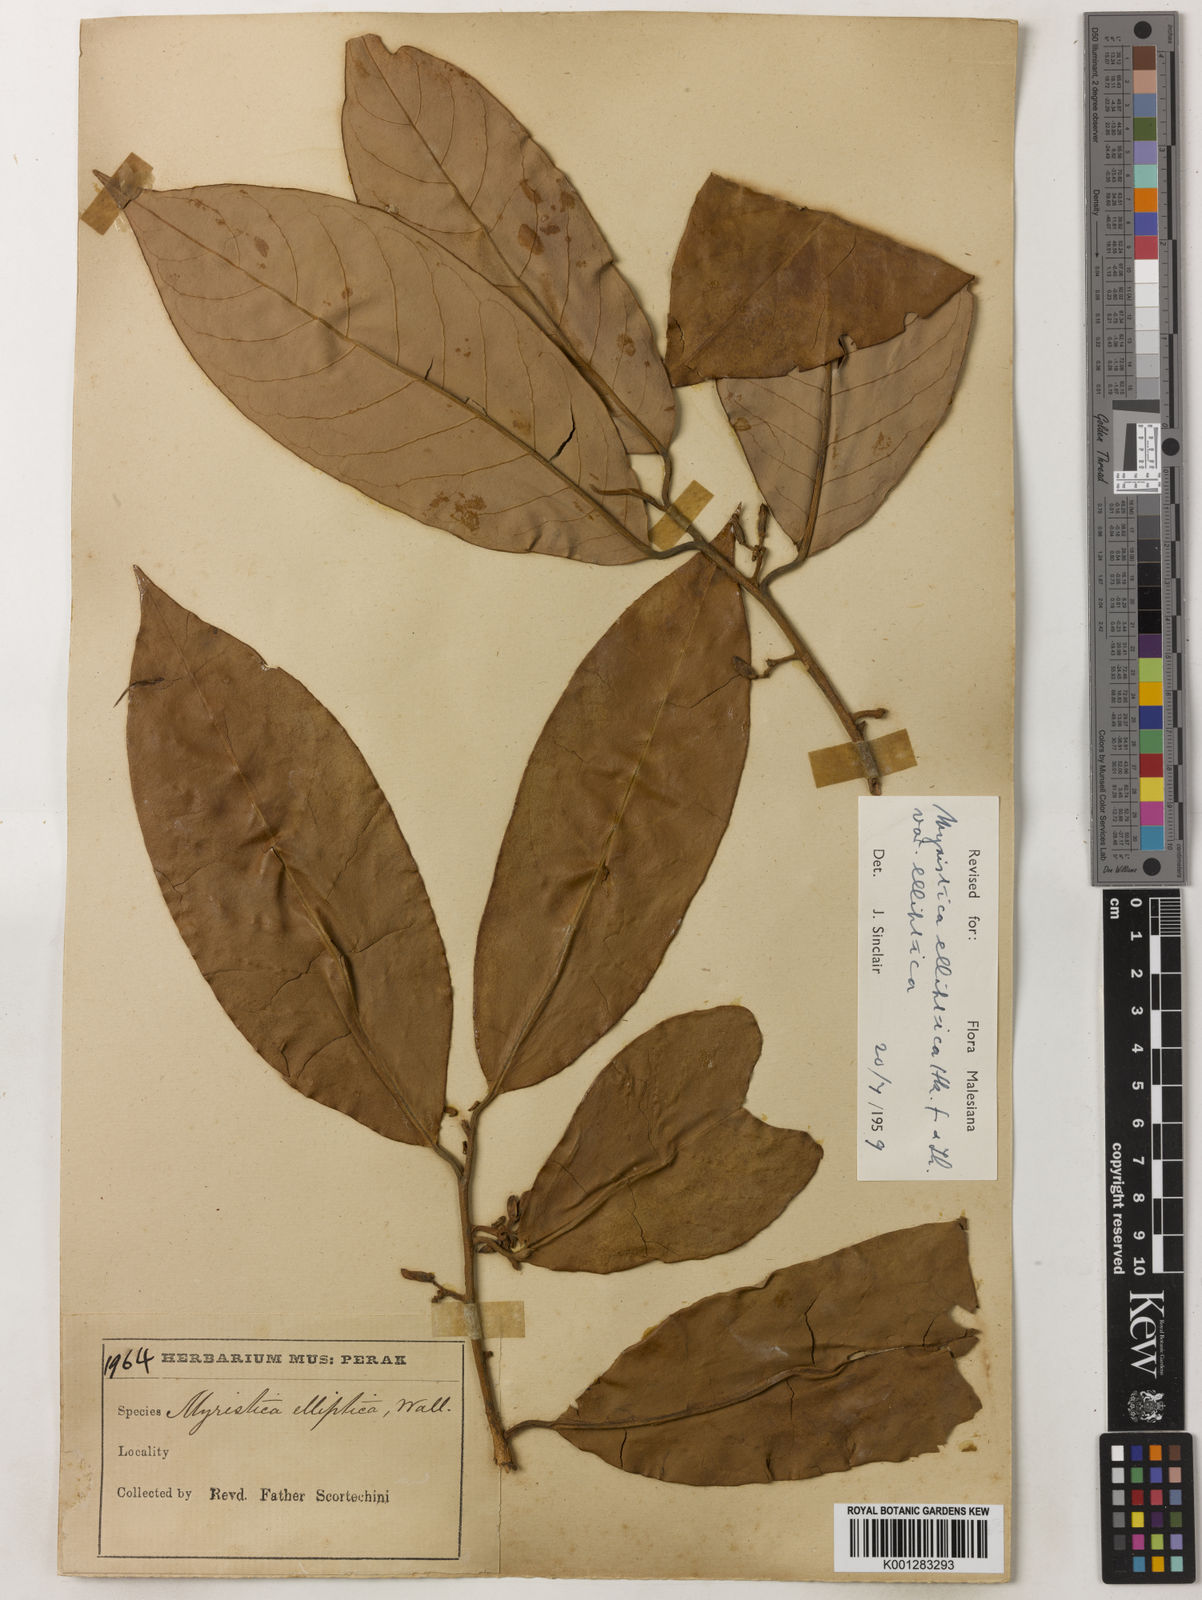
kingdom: Plantae
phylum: Tracheophyta
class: Magnoliopsida
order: Magnoliales
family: Myristicaceae
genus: Myristica
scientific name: Myristica elliptica
